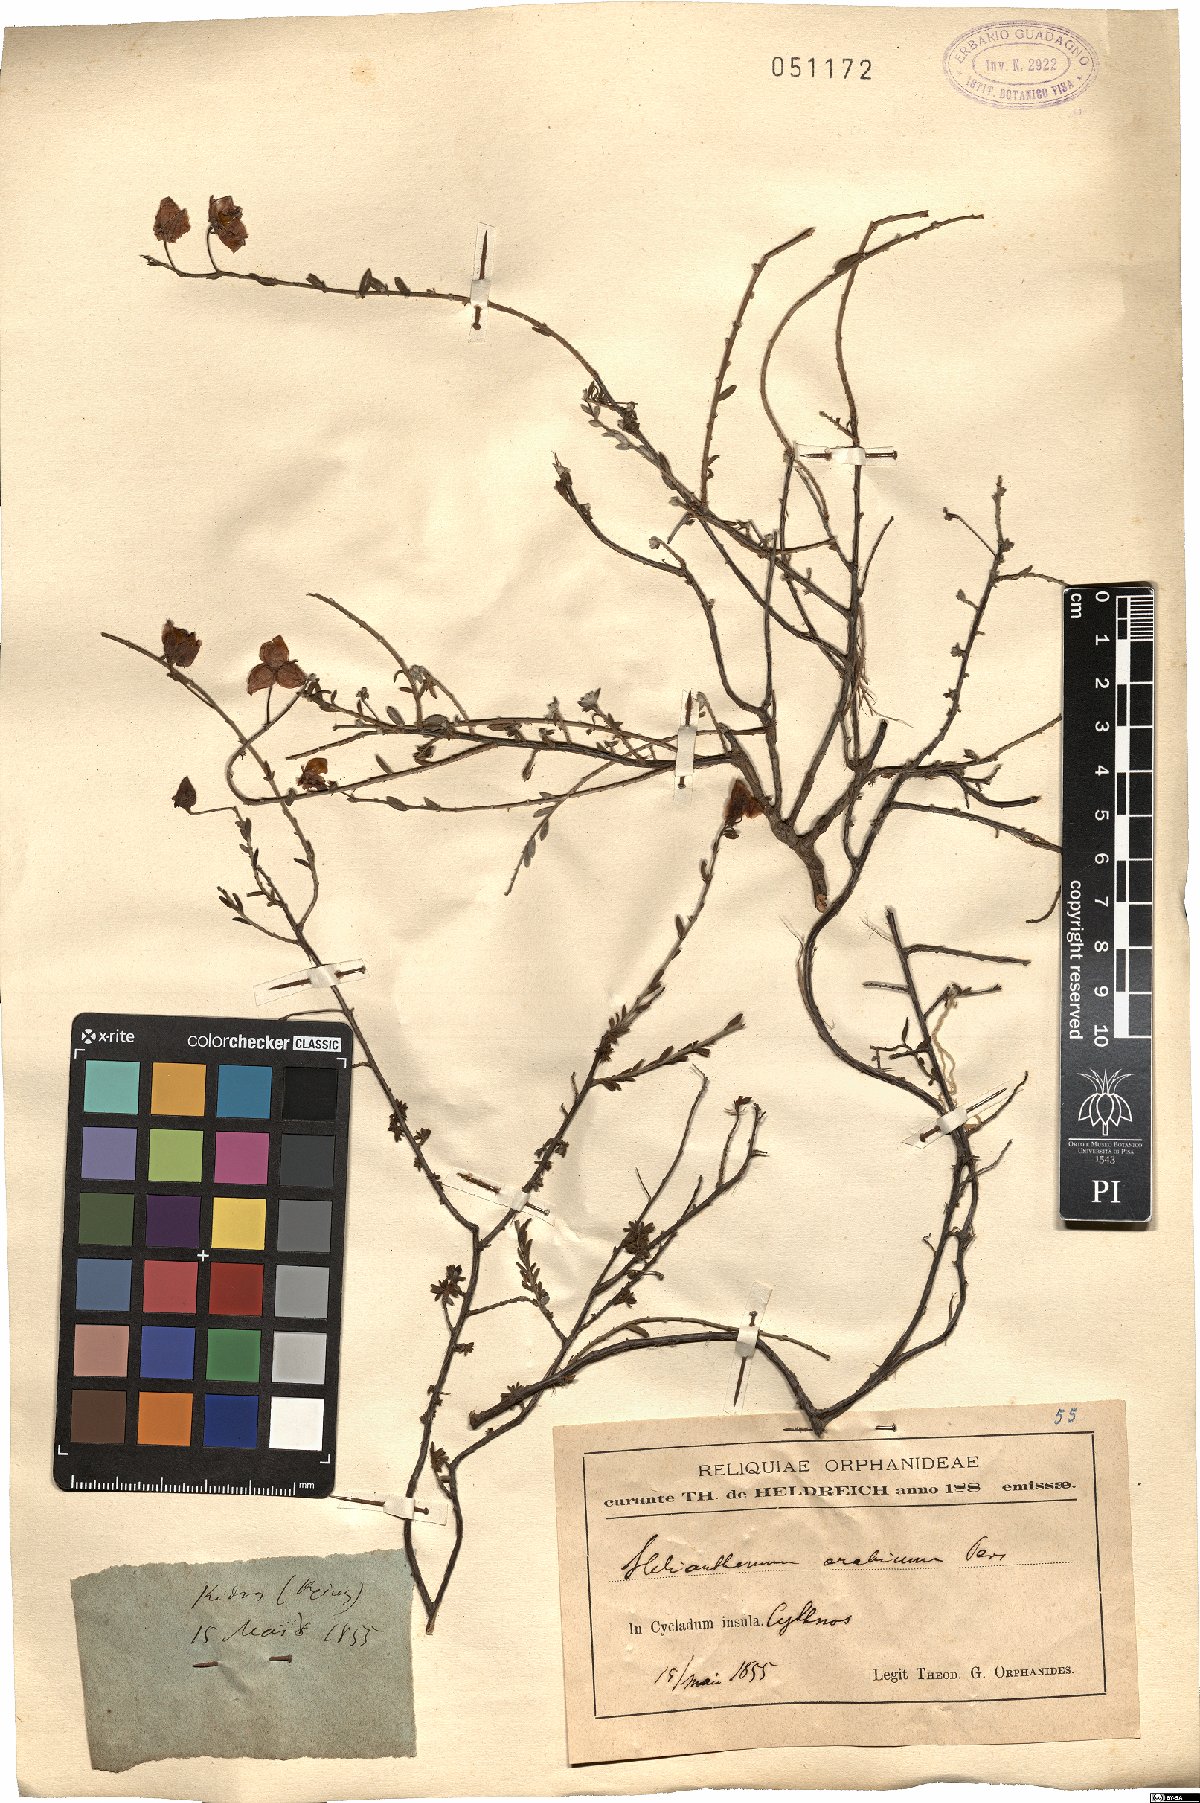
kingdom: Plantae
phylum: Tracheophyta
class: Magnoliopsida
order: Malvales
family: Cistaceae
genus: Fumana
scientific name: Fumana arabica
